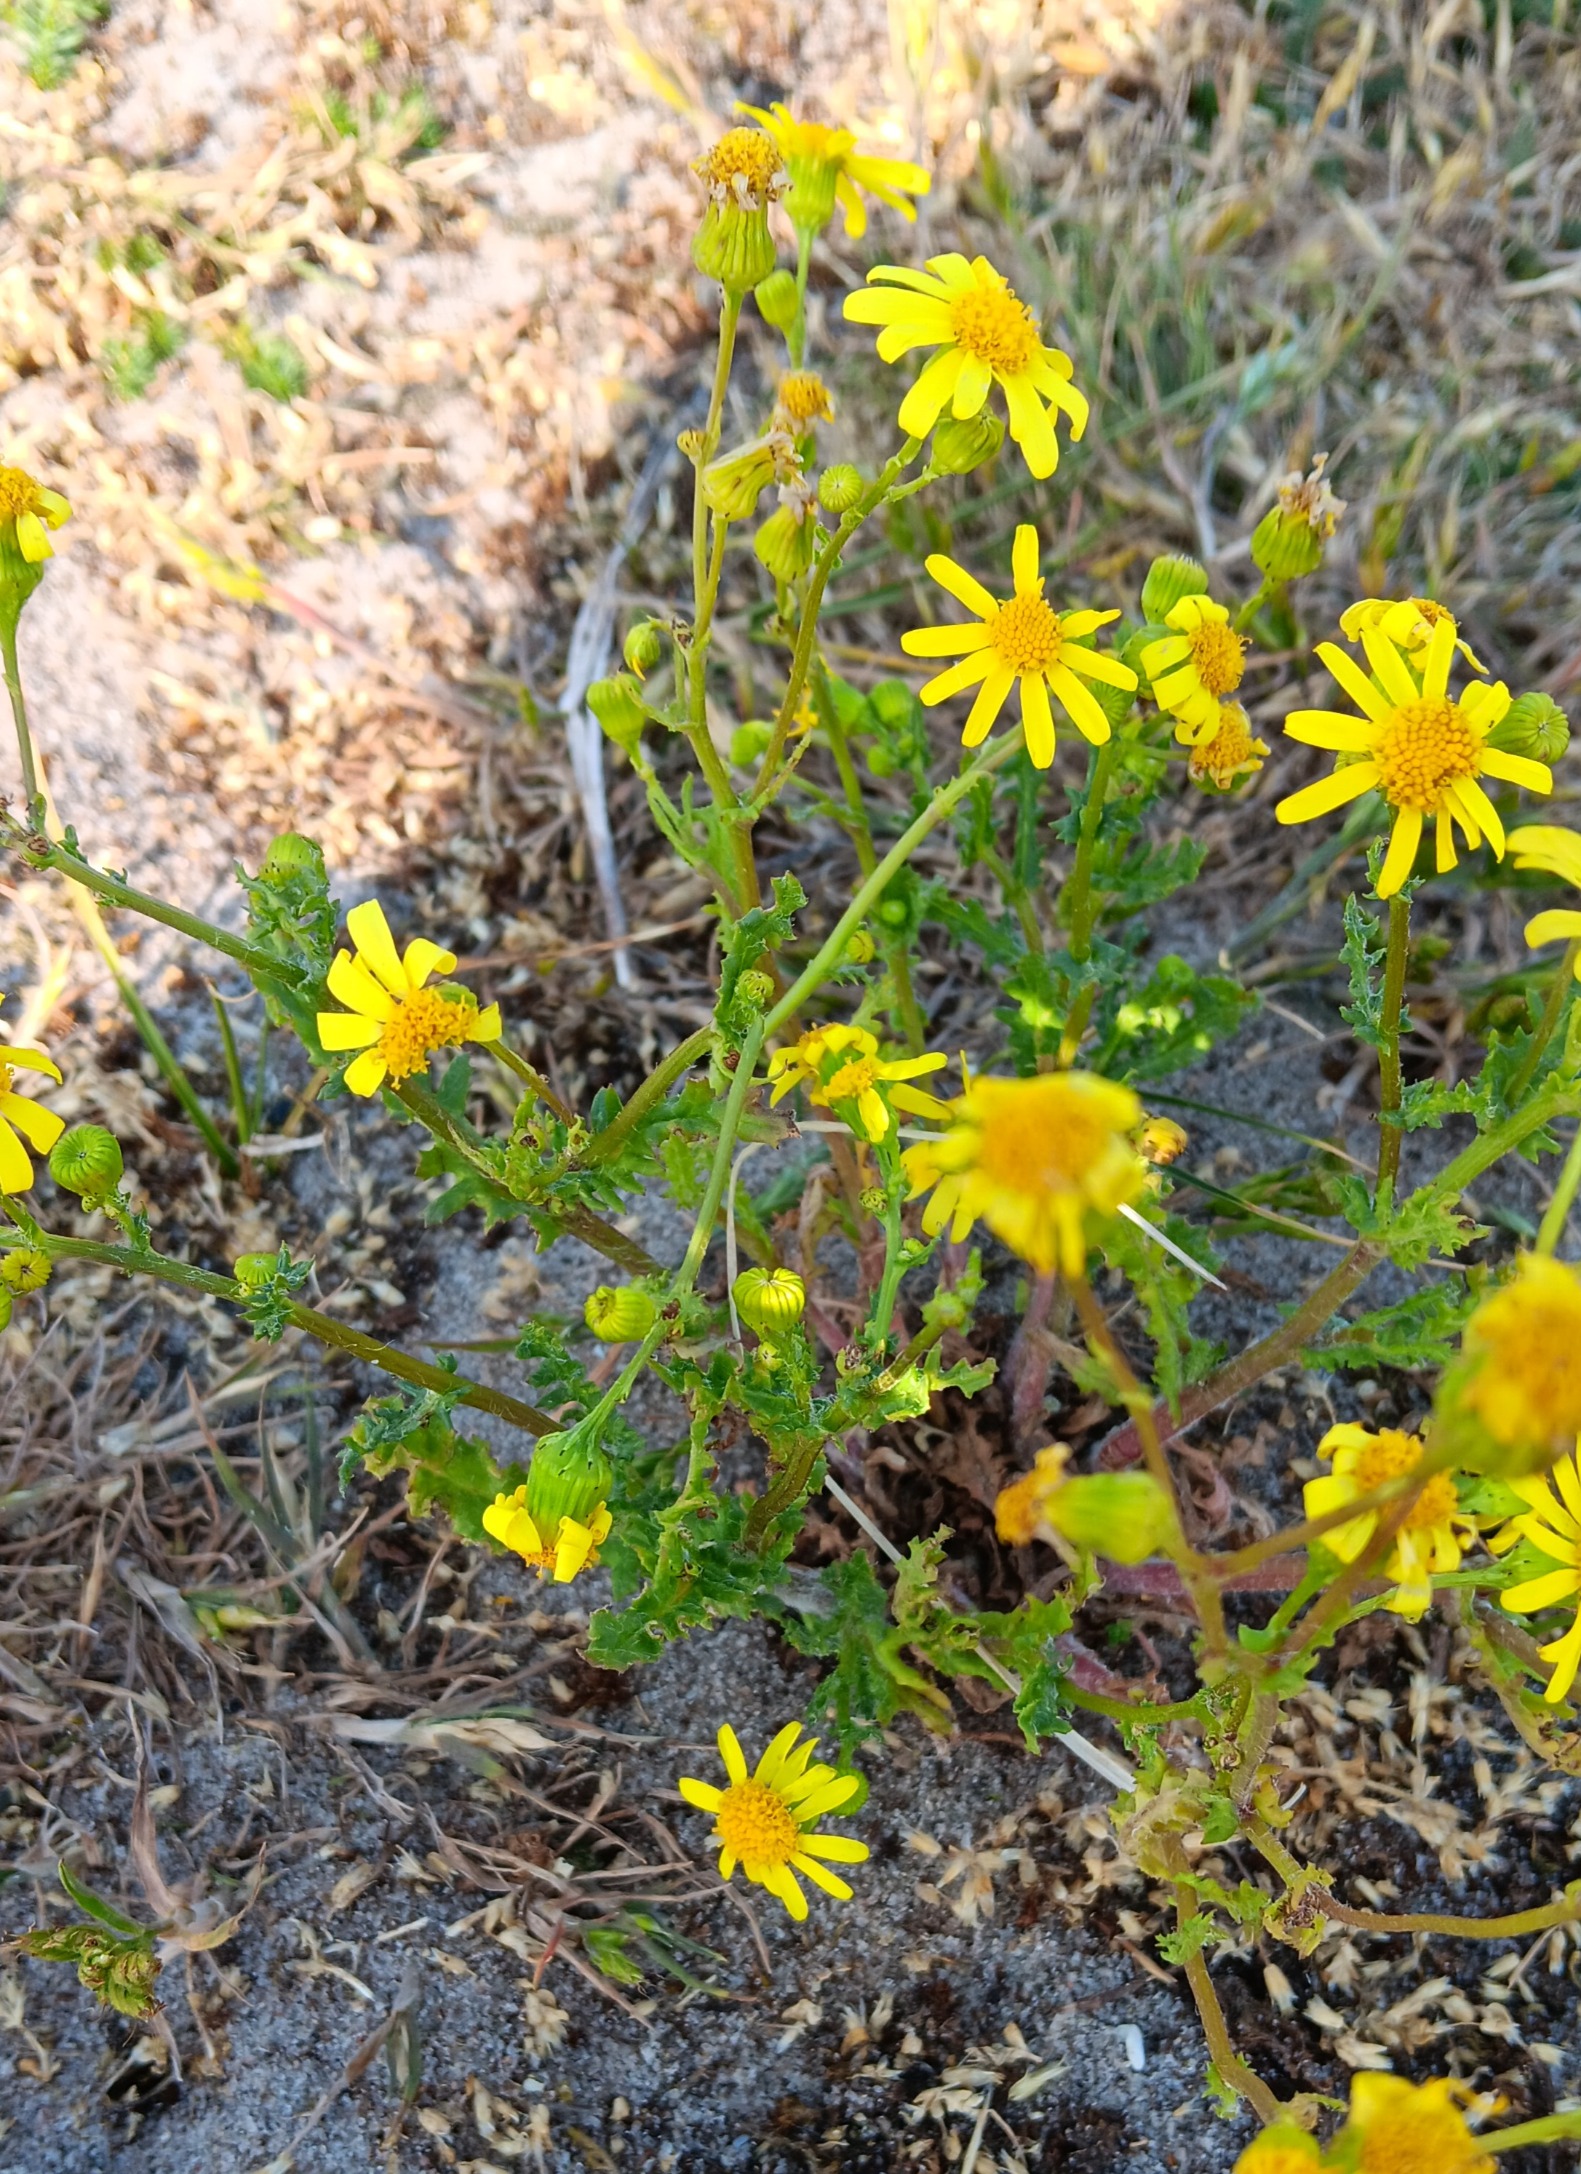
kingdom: Plantae
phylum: Tracheophyta
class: Magnoliopsida
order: Asterales
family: Asteraceae
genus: Senecio
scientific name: Senecio leucanthemifolius
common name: Vår-brandbæger
